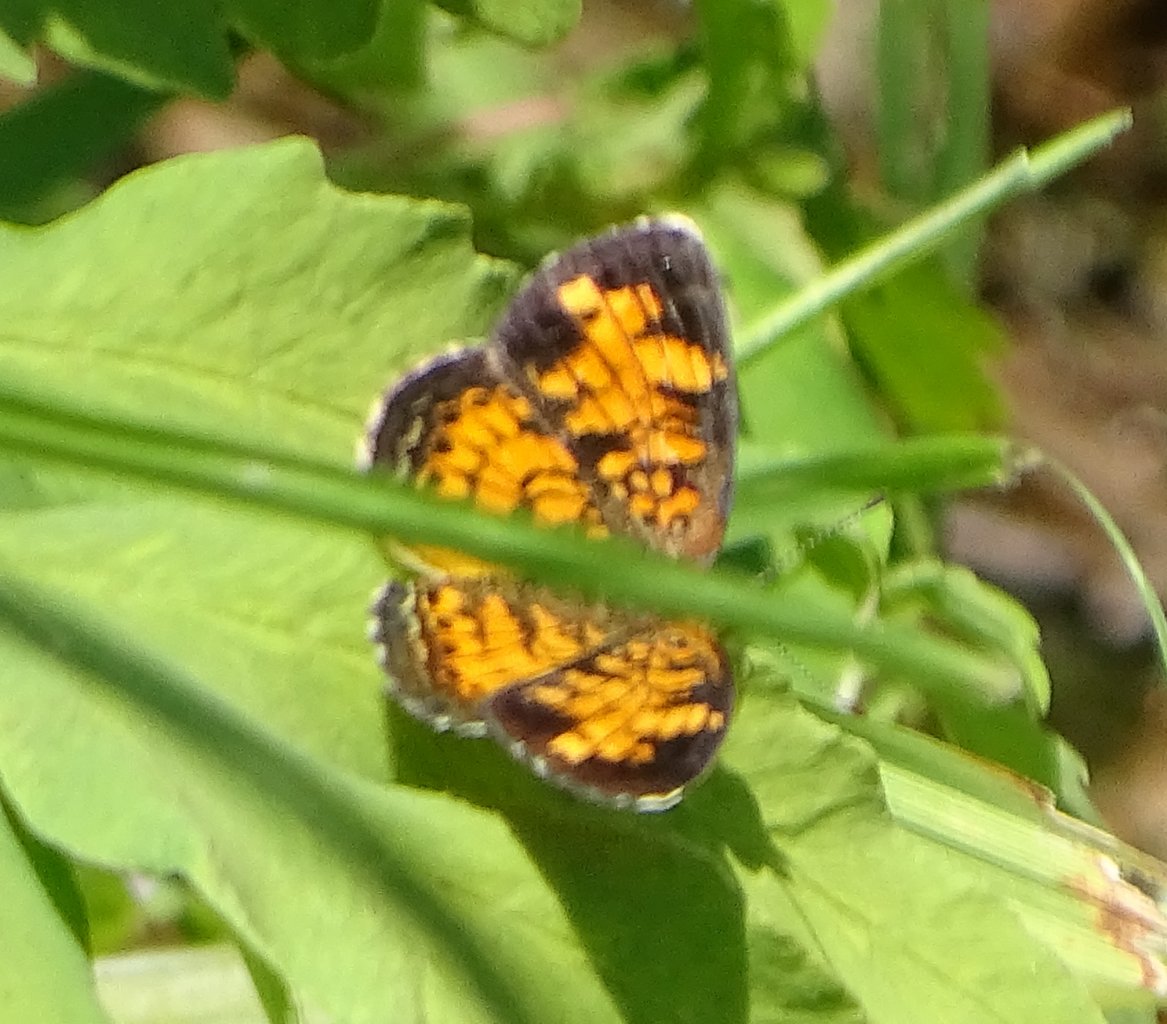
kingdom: Animalia
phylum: Arthropoda
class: Insecta
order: Lepidoptera
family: Nymphalidae
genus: Phyciodes
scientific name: Phyciodes
